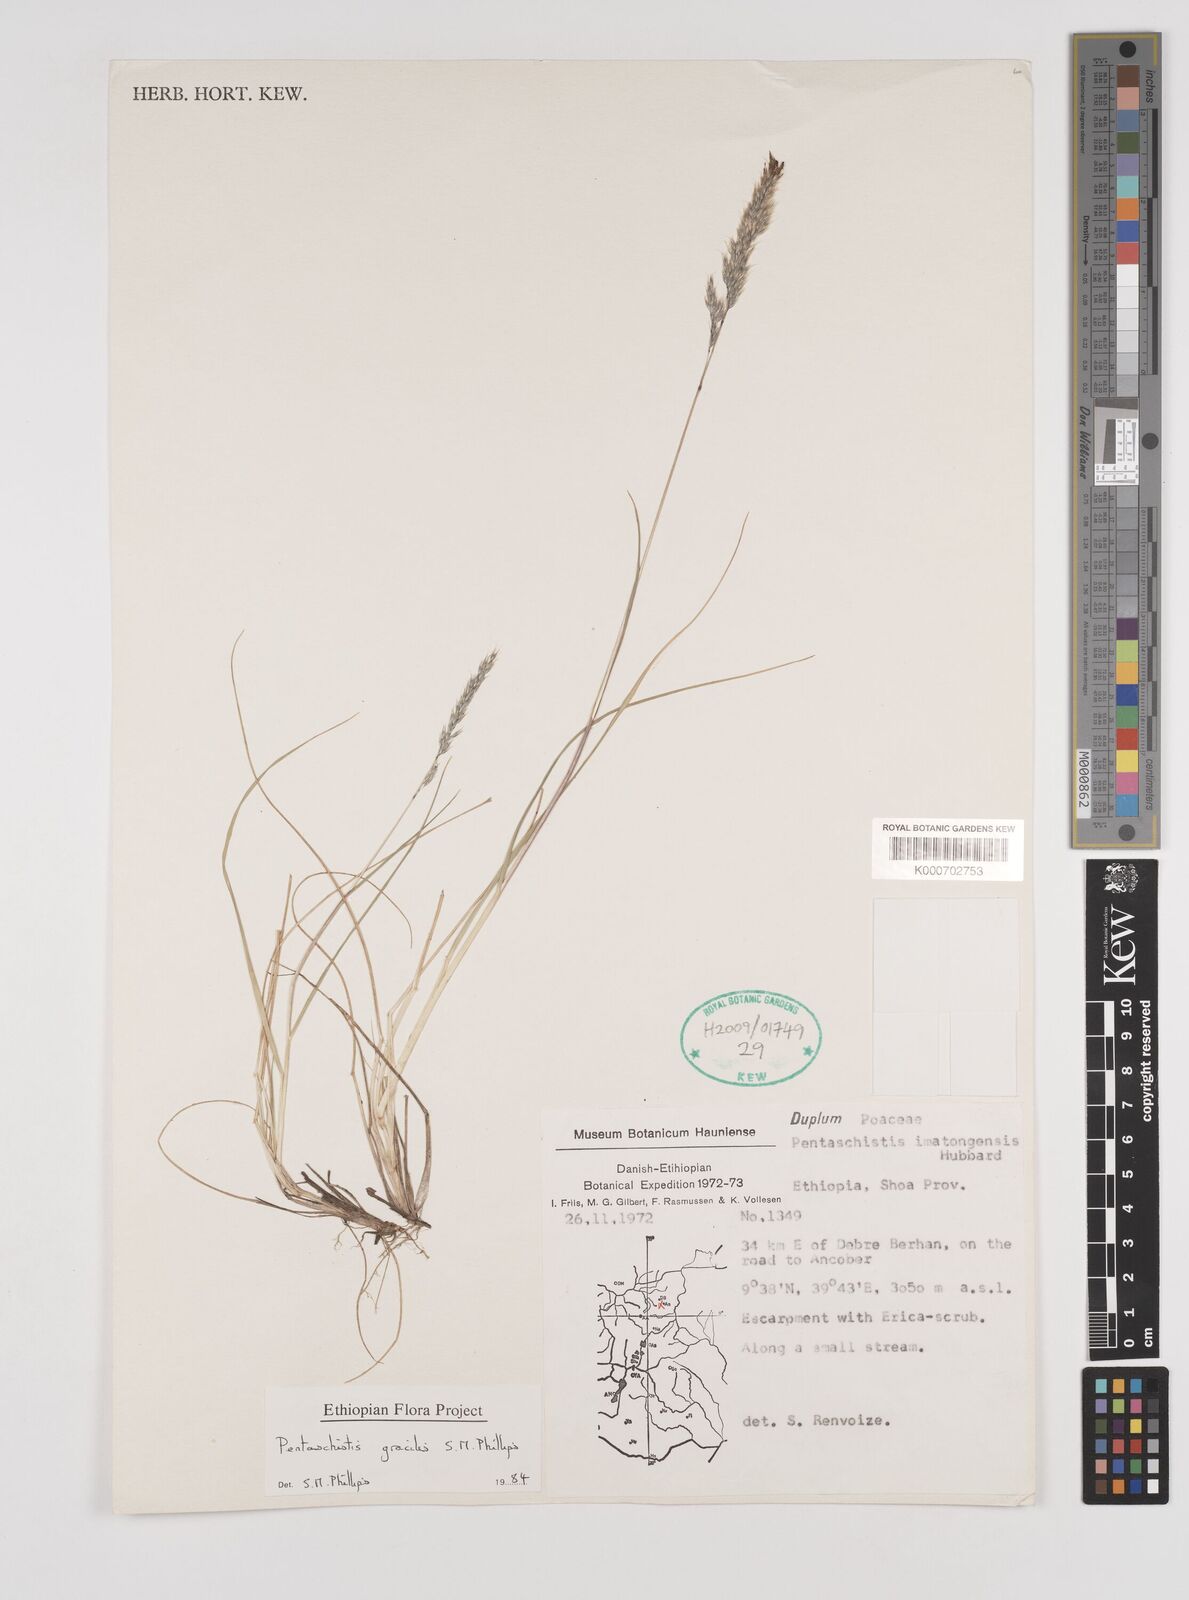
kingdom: Plantae
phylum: Tracheophyta
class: Liliopsida
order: Poales
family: Poaceae
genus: Pentameris
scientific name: Pentameris pictigluma
